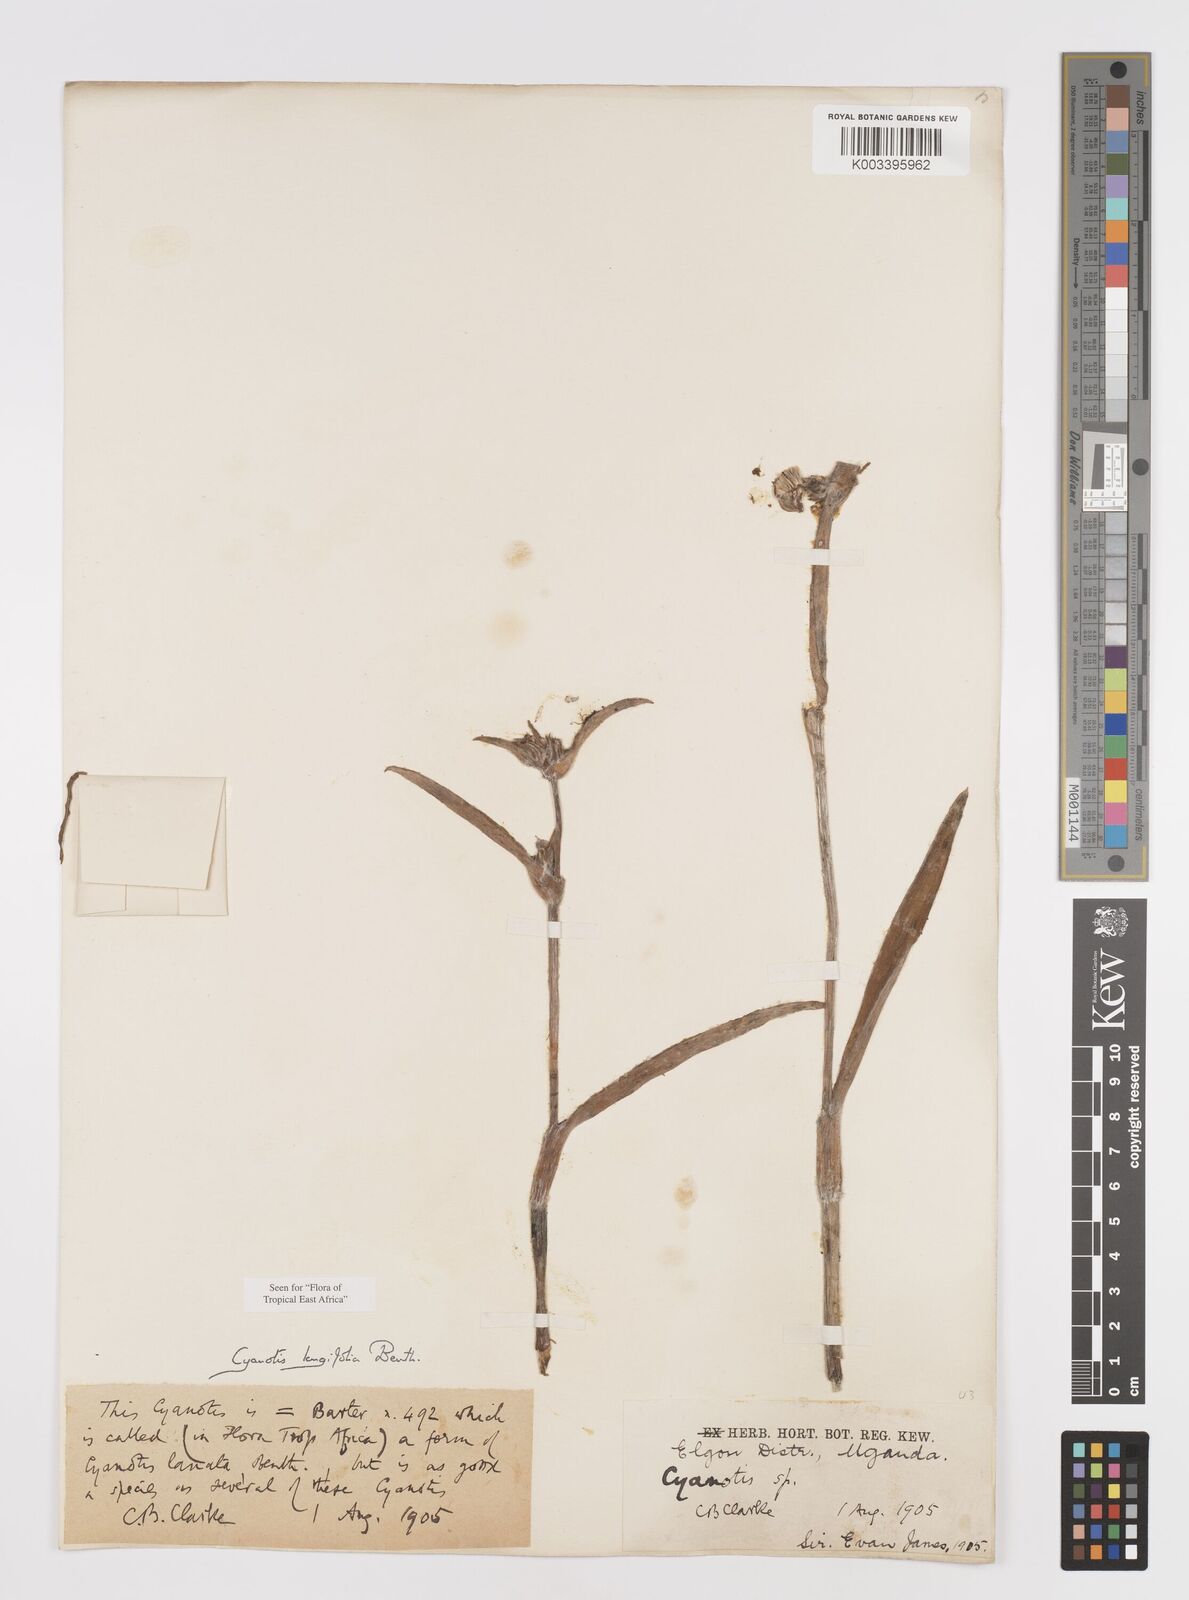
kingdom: Plantae
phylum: Tracheophyta
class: Liliopsida
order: Commelinales
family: Commelinaceae
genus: Cyanotis
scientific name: Cyanotis longifolia
